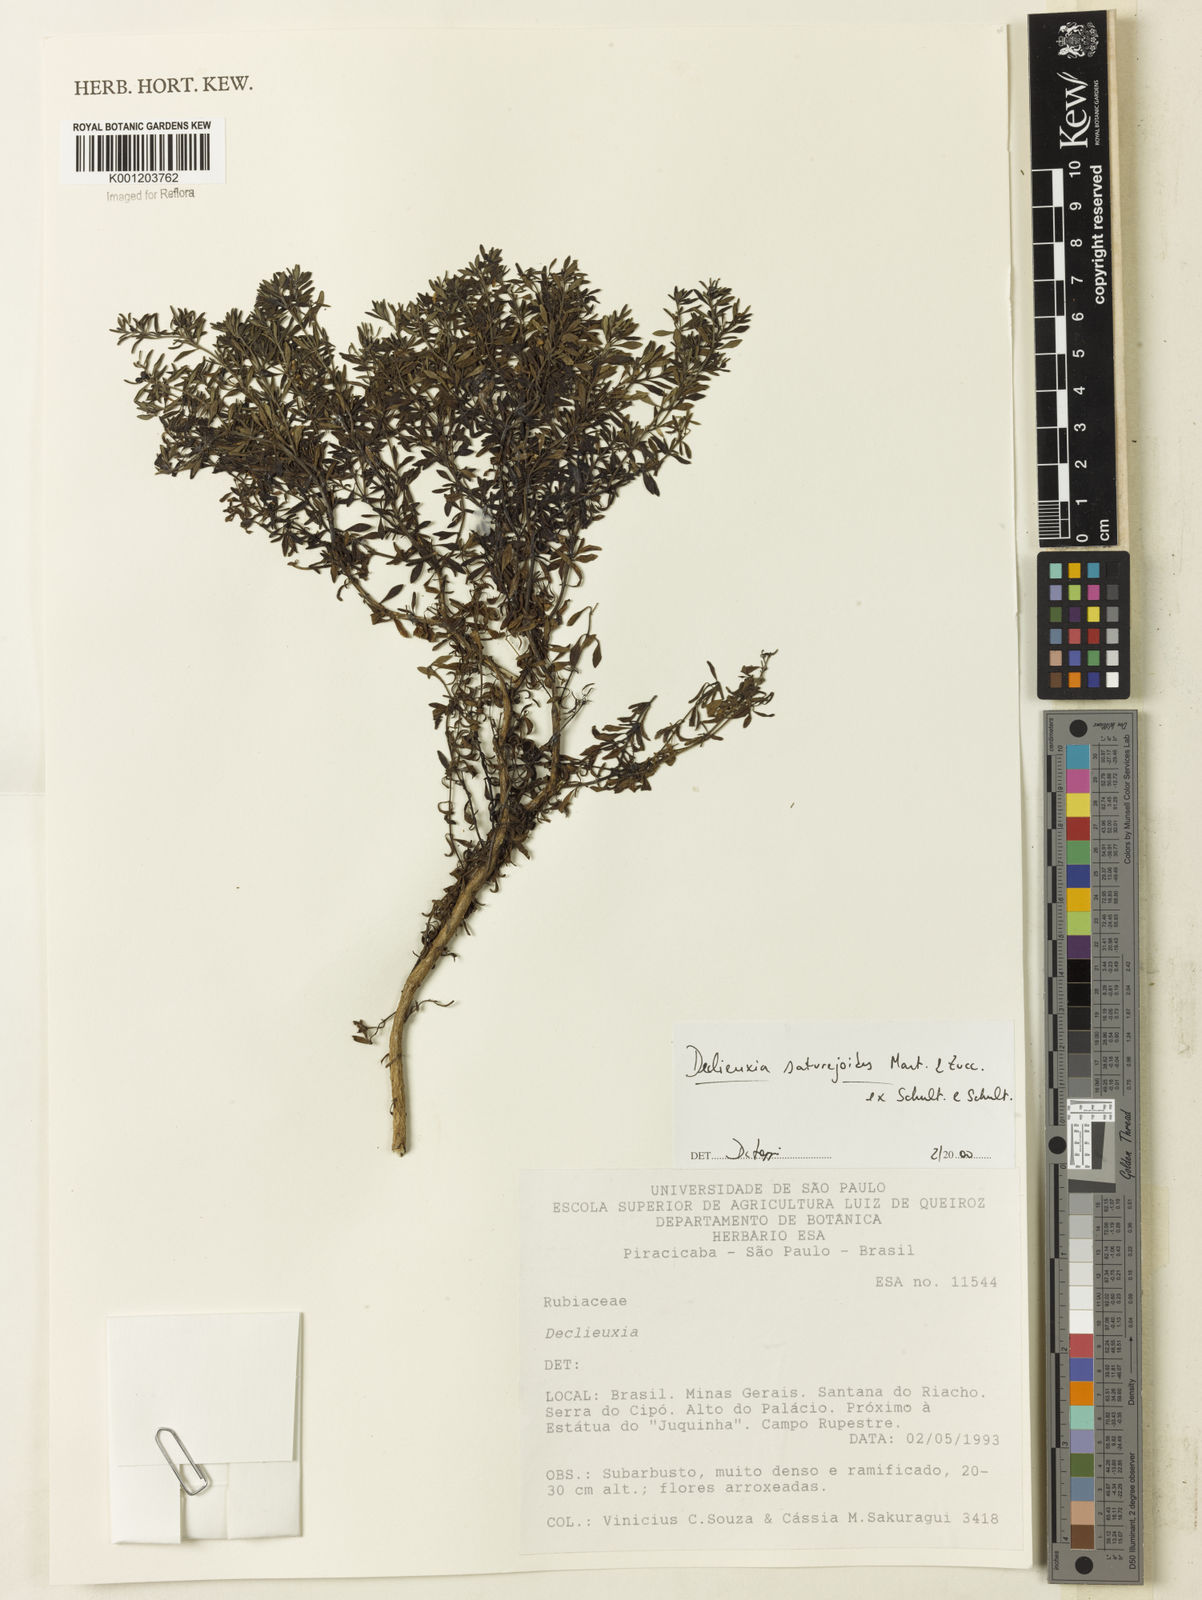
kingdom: Plantae
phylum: Tracheophyta
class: Magnoliopsida
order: Gentianales
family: Rubiaceae
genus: Declieuxia
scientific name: Declieuxia
